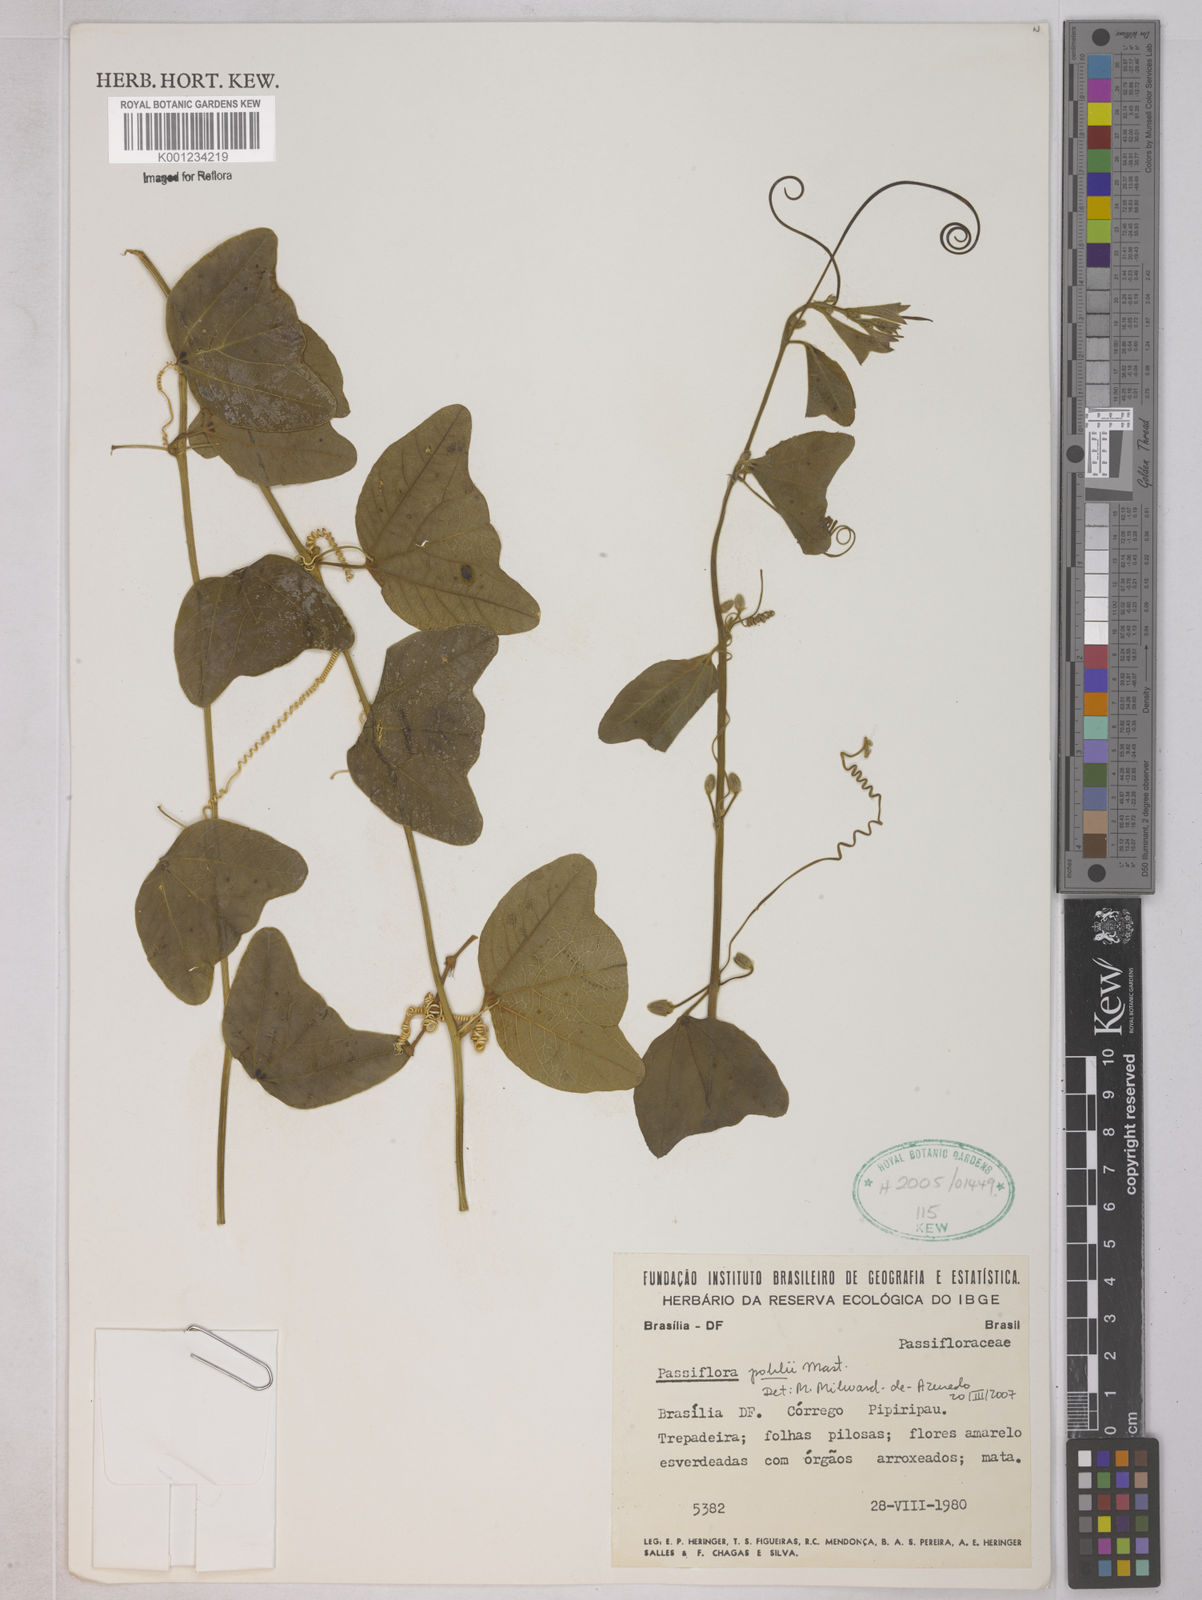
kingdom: Plantae
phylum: Tracheophyta
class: Magnoliopsida
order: Malpighiales
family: Passifloraceae
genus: Passiflora
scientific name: Passiflora pohlii
